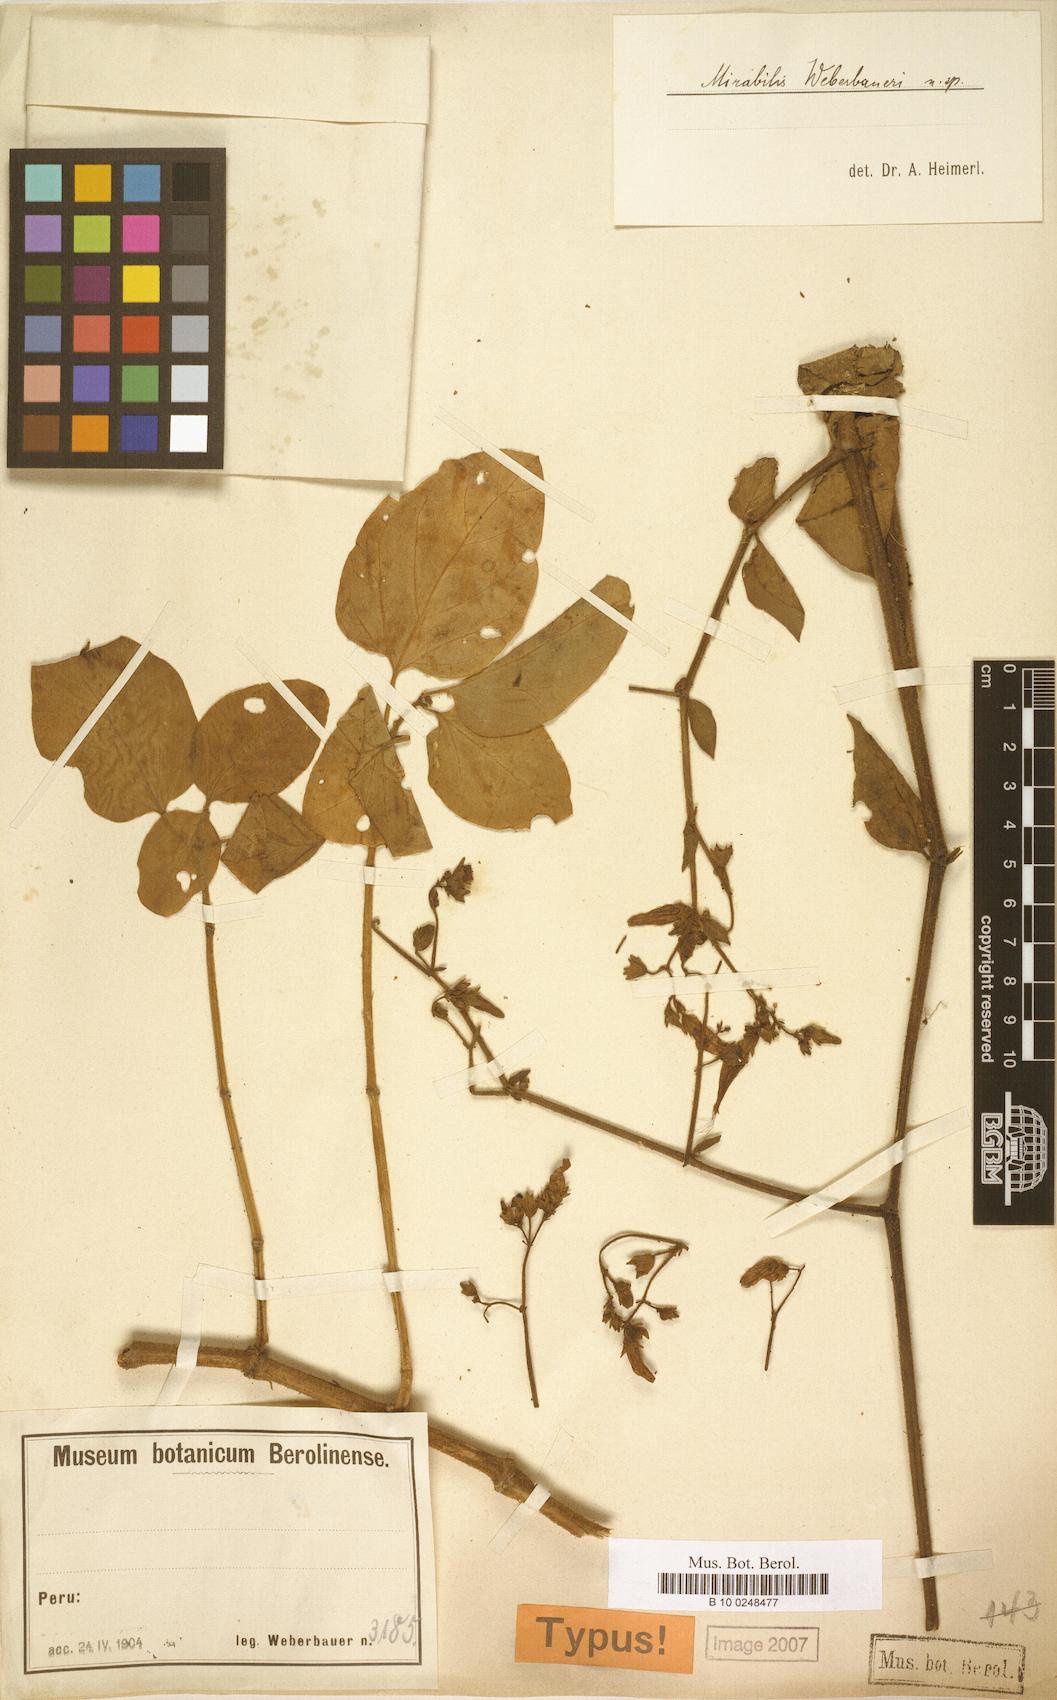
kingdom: Plantae
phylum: Tracheophyta
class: Magnoliopsida
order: Caryophyllales
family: Nyctaginaceae
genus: Mirabilis
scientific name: Mirabilis weberbaueri
